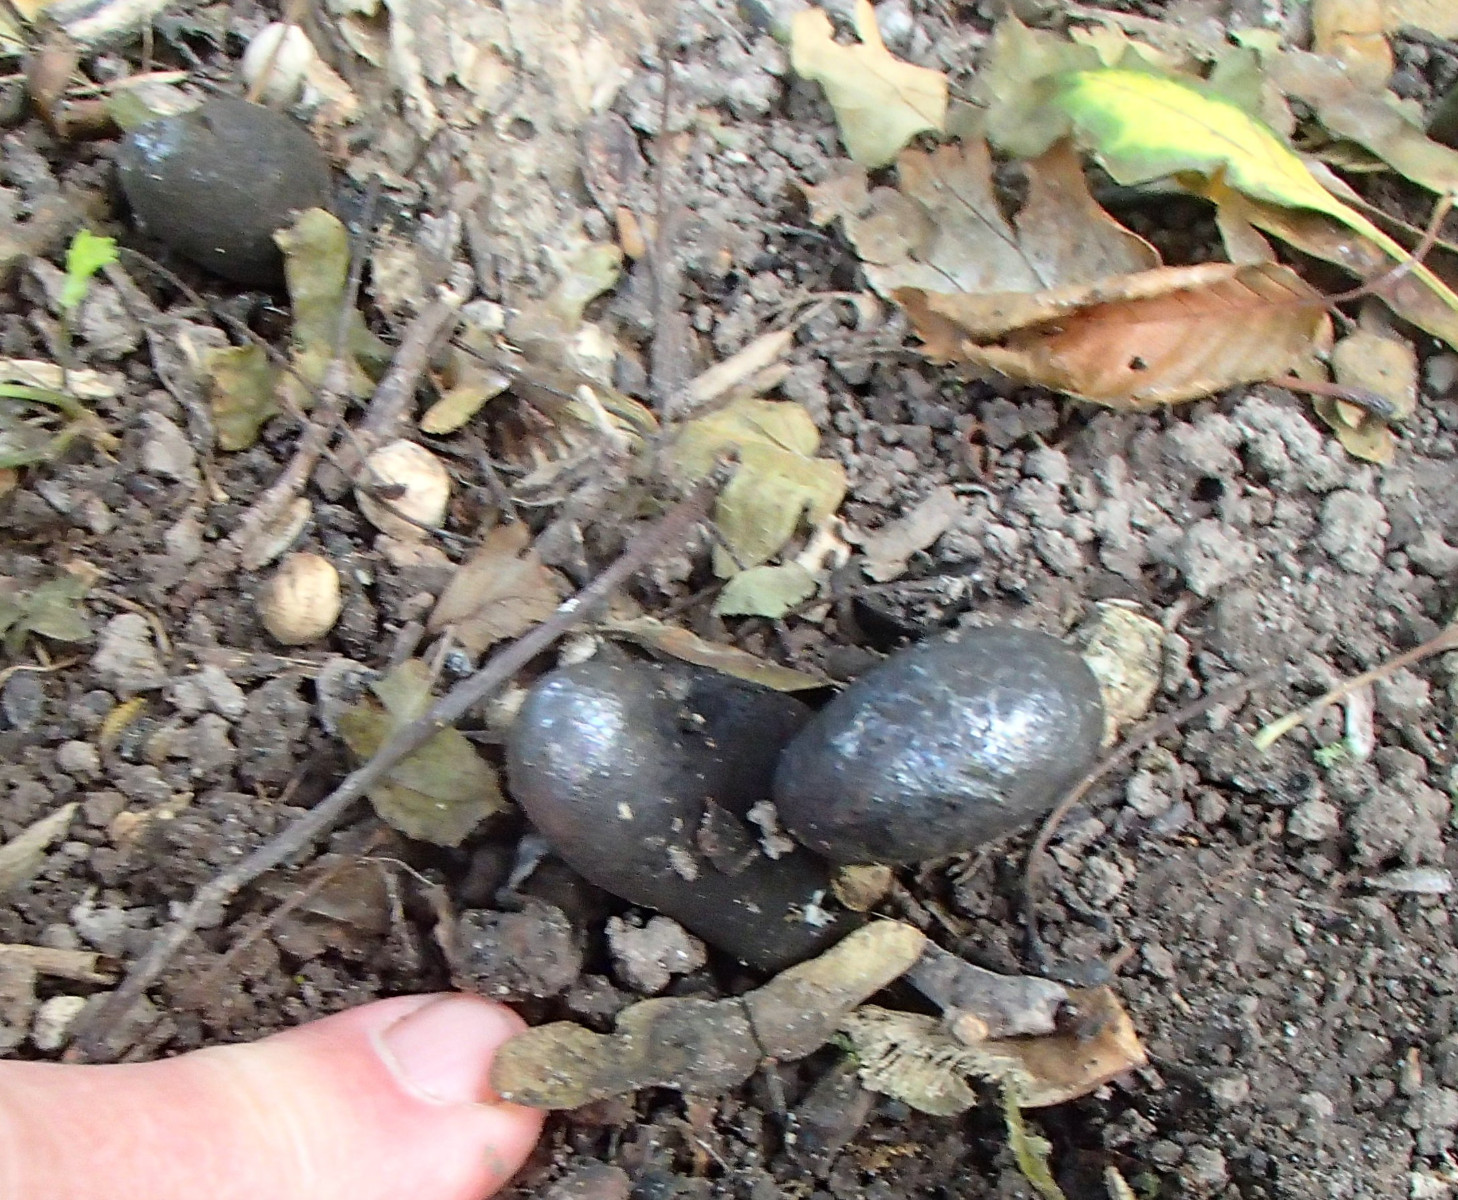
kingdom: Fungi
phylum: Ascomycota
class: Sordariomycetes
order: Xylariales
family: Xylariaceae
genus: Xylaria
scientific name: Xylaria polymorpha
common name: kølle-stødsvamp
